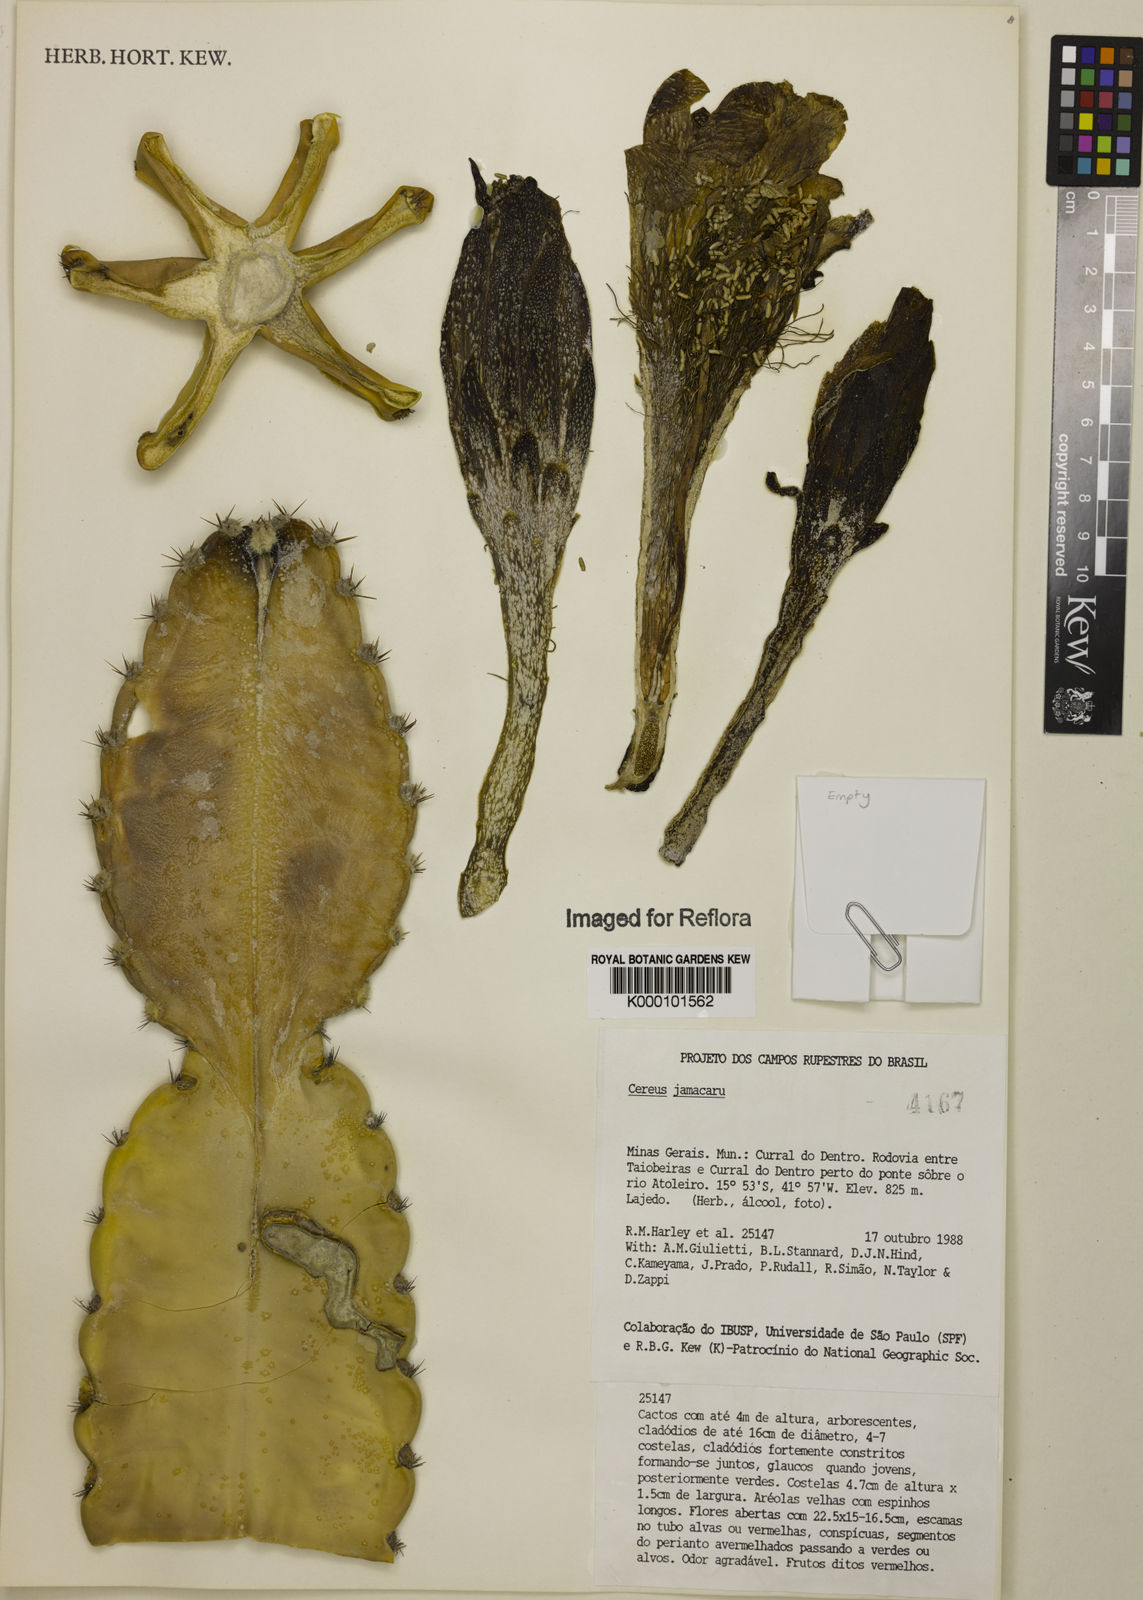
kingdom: Plantae
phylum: Tracheophyta
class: Magnoliopsida
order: Caryophyllales
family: Cactaceae
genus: Cereus
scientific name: Cereus jamacaru
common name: Queen-of-the-night
